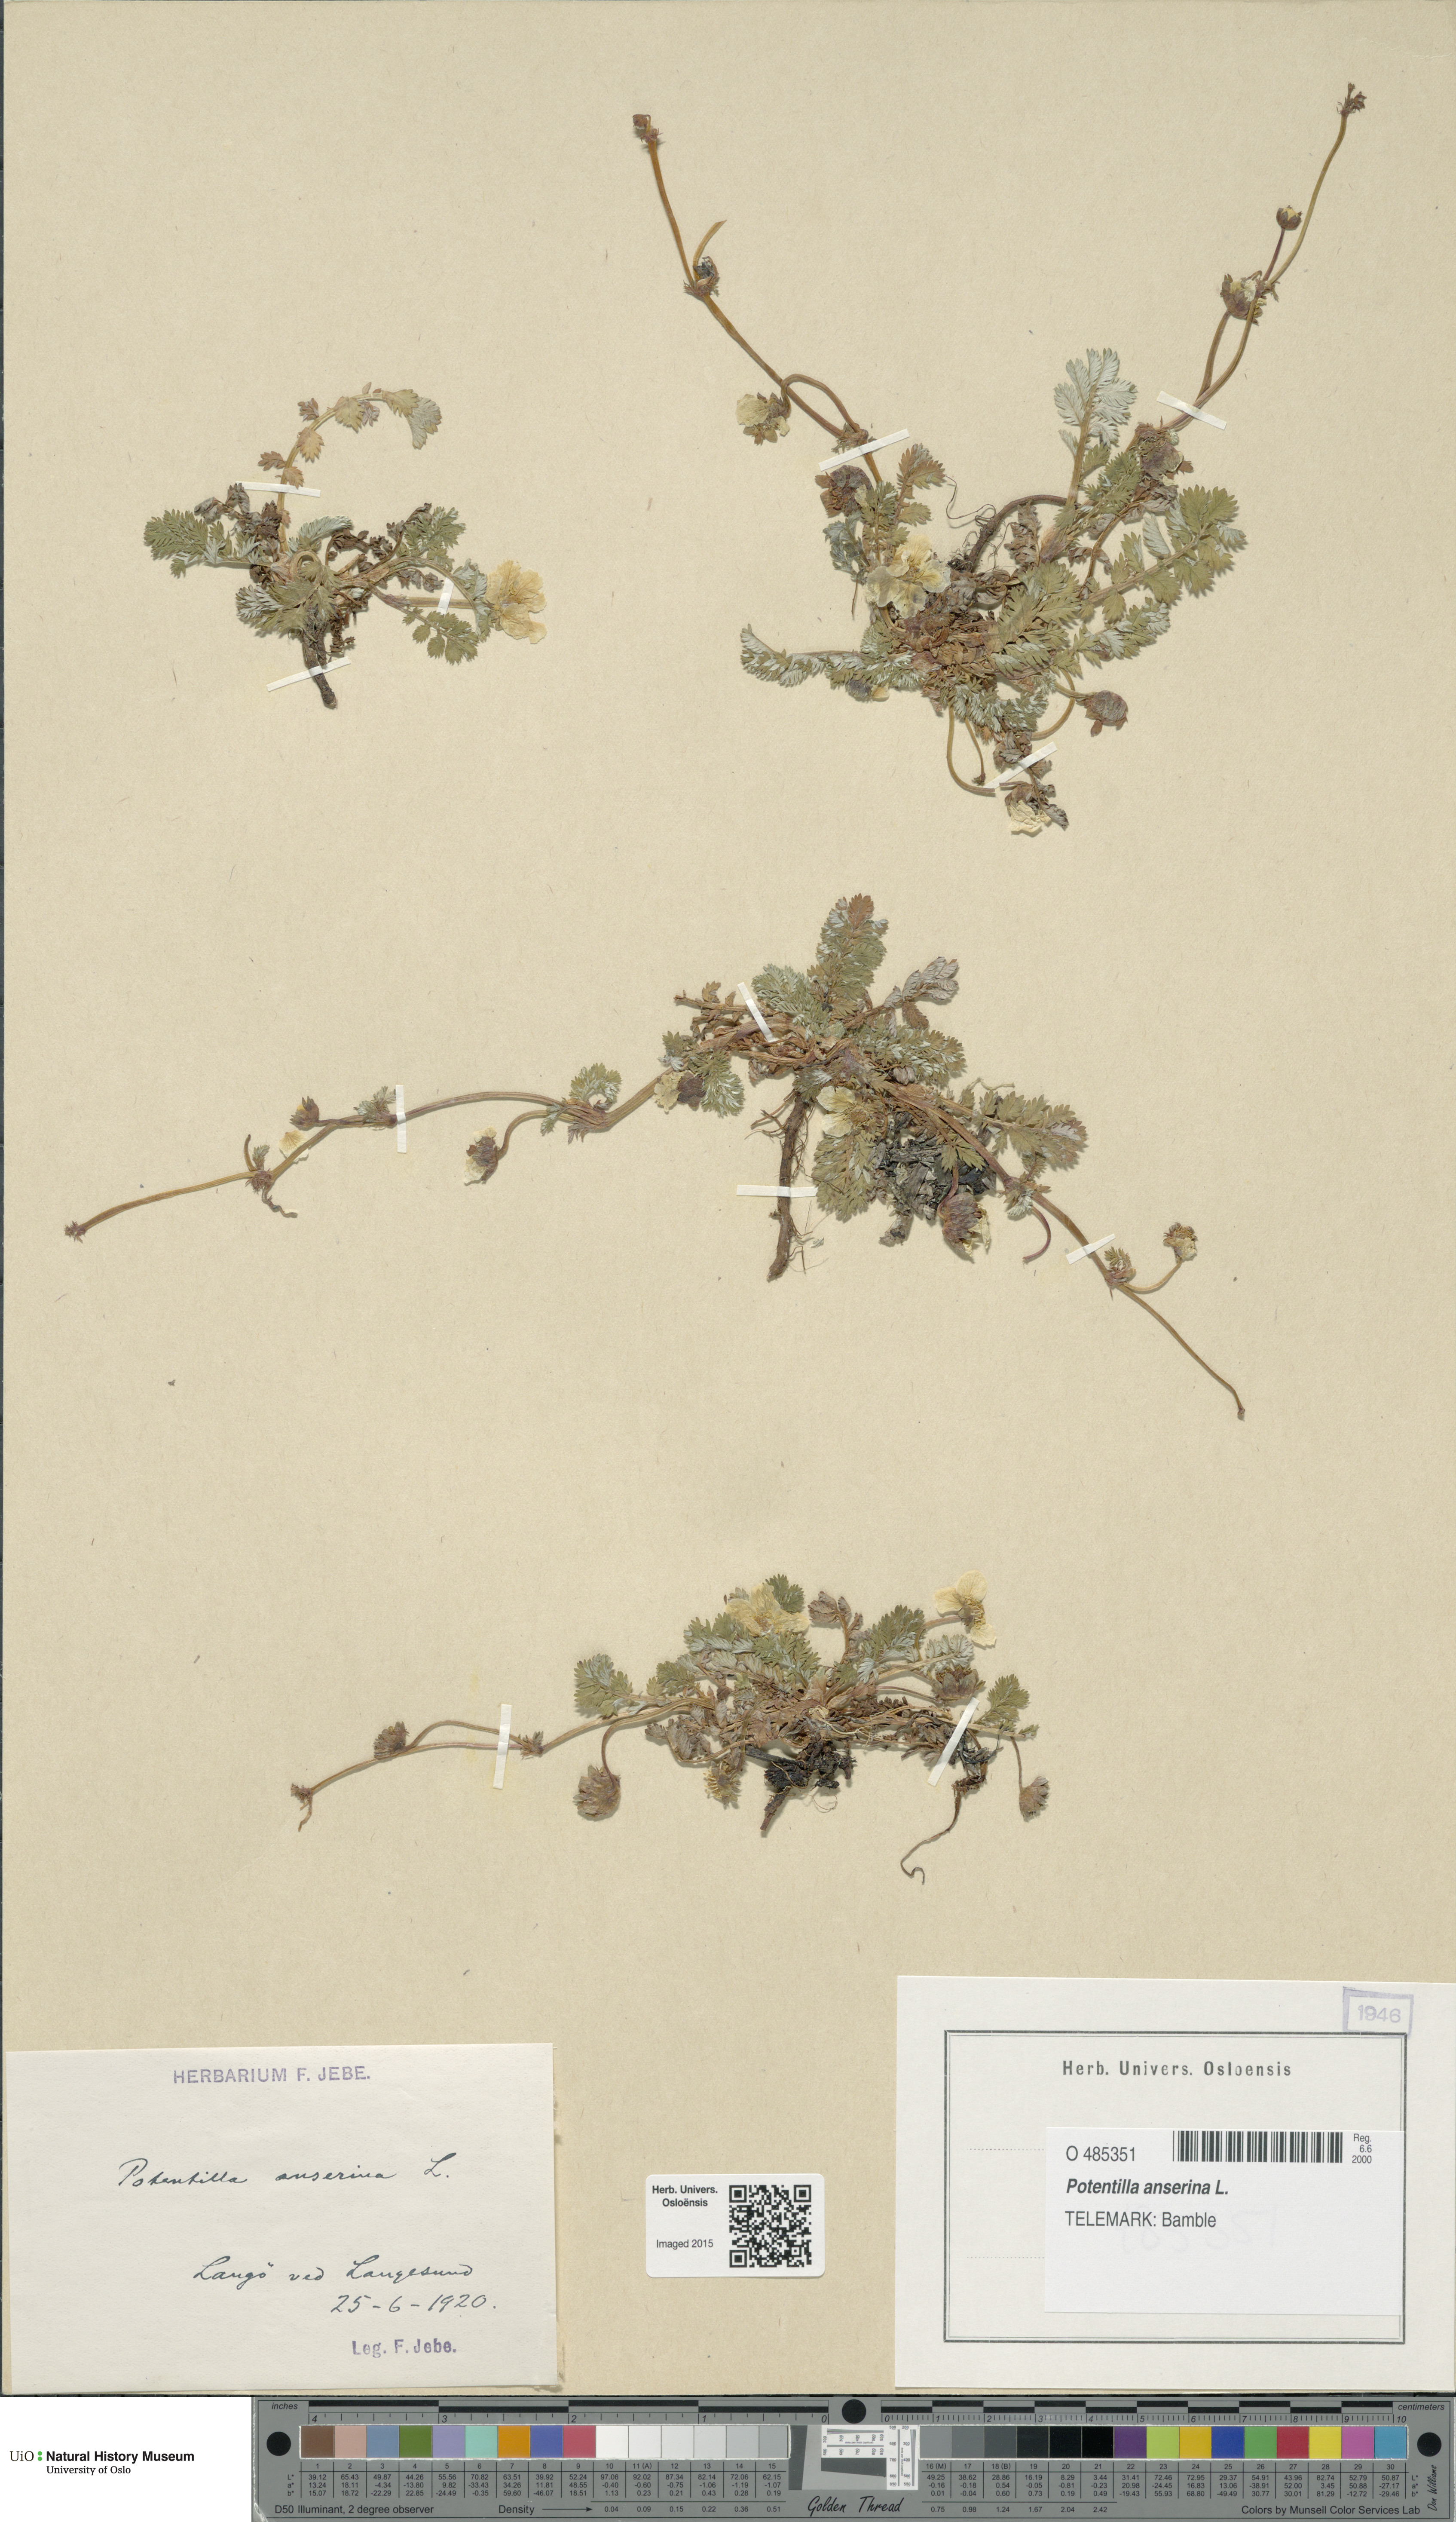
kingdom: Plantae
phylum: Tracheophyta
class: Magnoliopsida
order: Rosales
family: Rosaceae
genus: Argentina
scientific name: Argentina anserina
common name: Common silverweed
